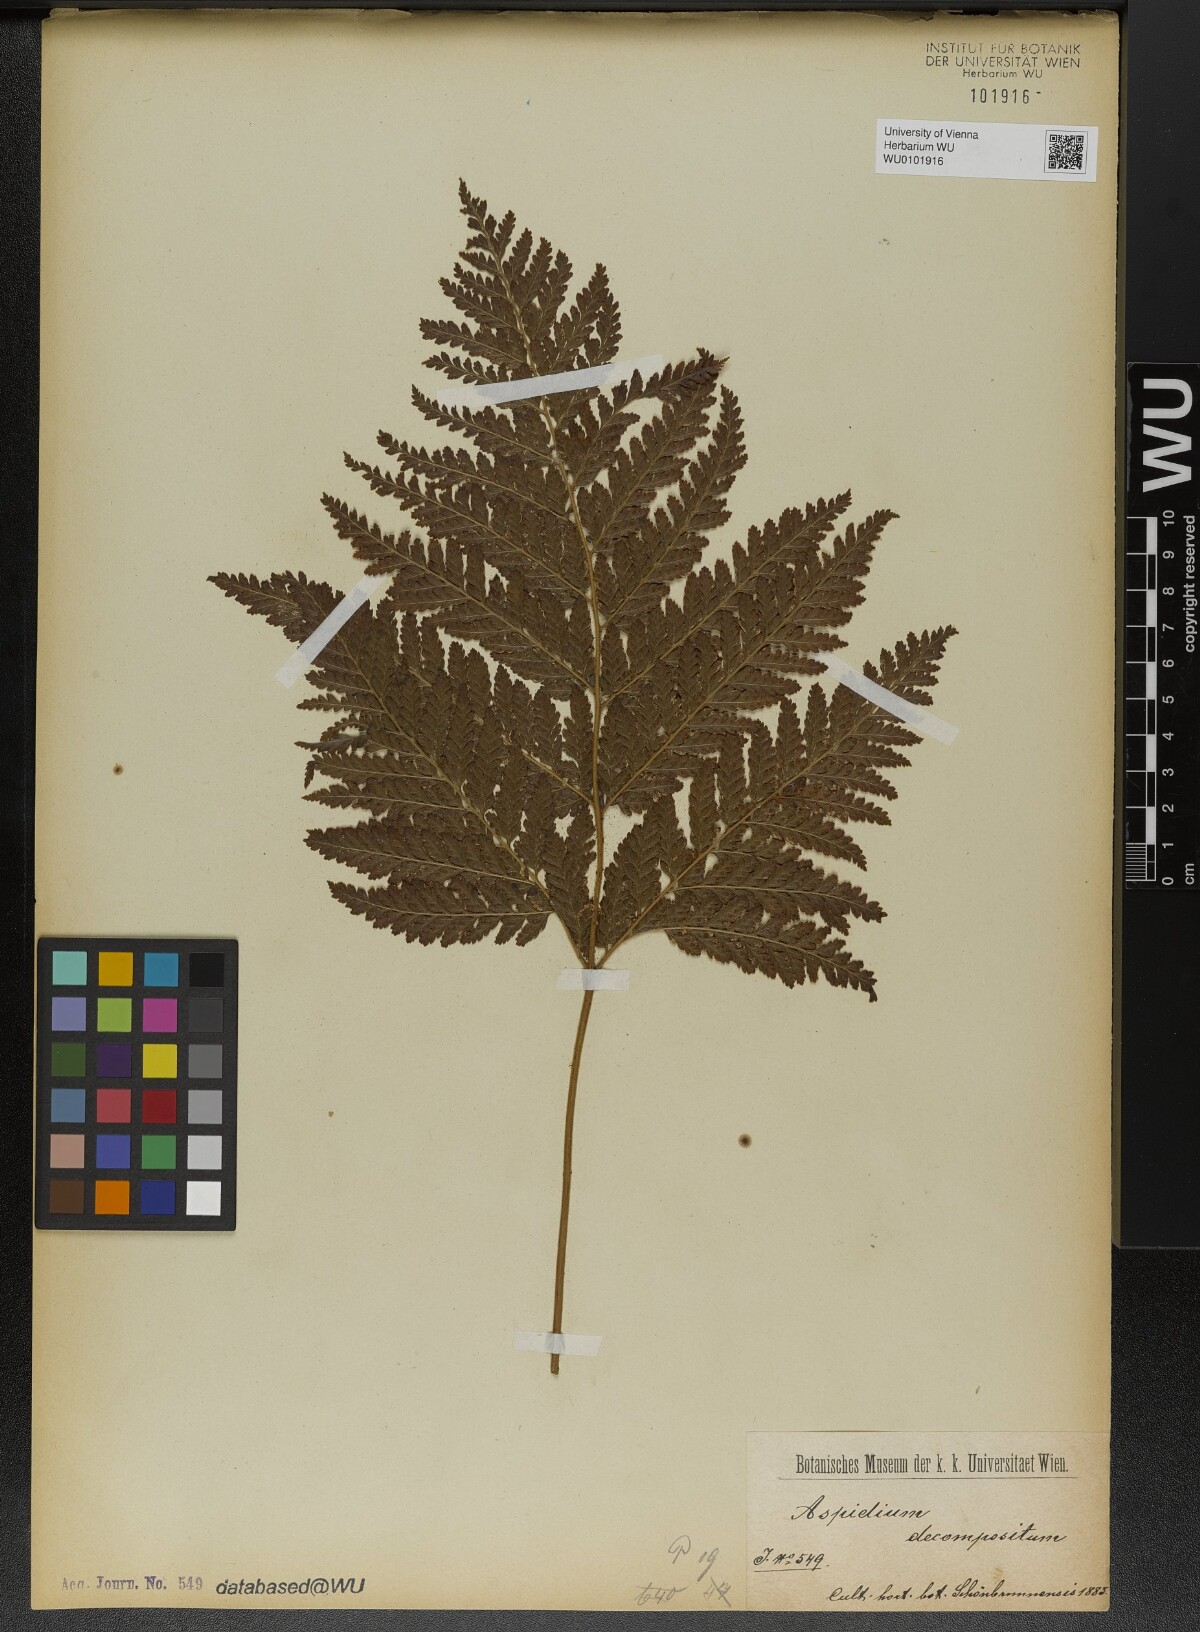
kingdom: Plantae
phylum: Tracheophyta
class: Polypodiopsida
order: Polypodiales
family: Dryopteridaceae
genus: Lastreopsis
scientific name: Lastreopsis decomposita
